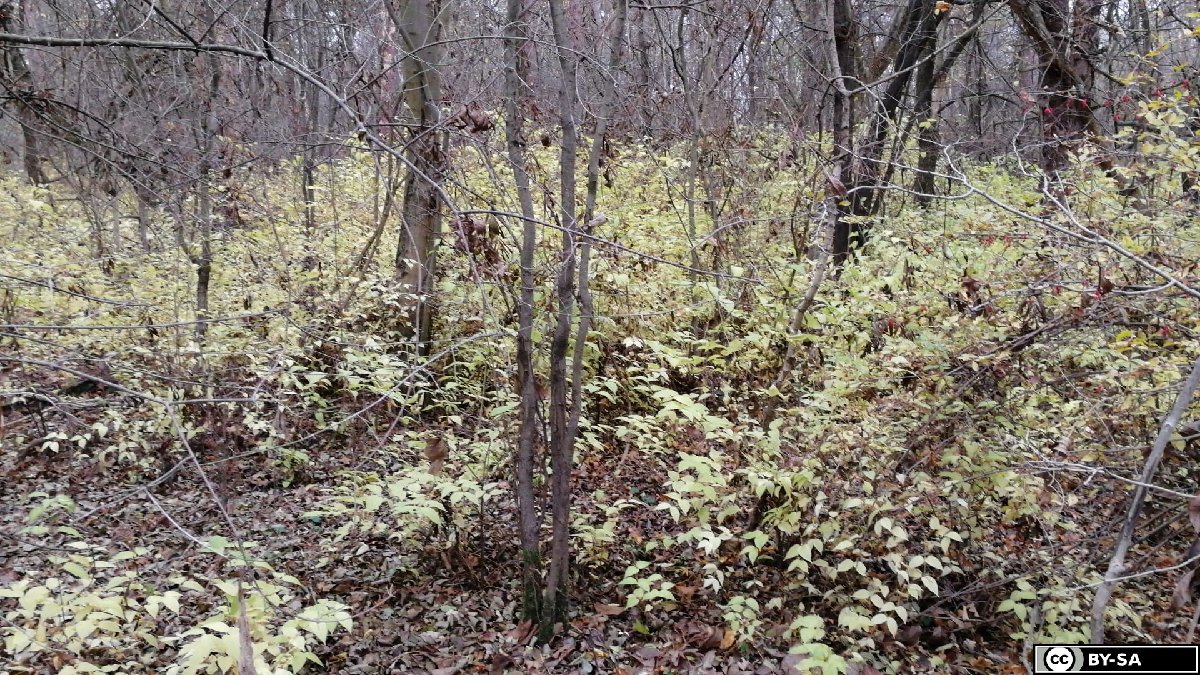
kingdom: Plantae
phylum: Tracheophyta
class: Magnoliopsida
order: Rosales
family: Rosaceae
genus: Rhodotypos
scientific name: Rhodotypos scandens
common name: Jetbead
